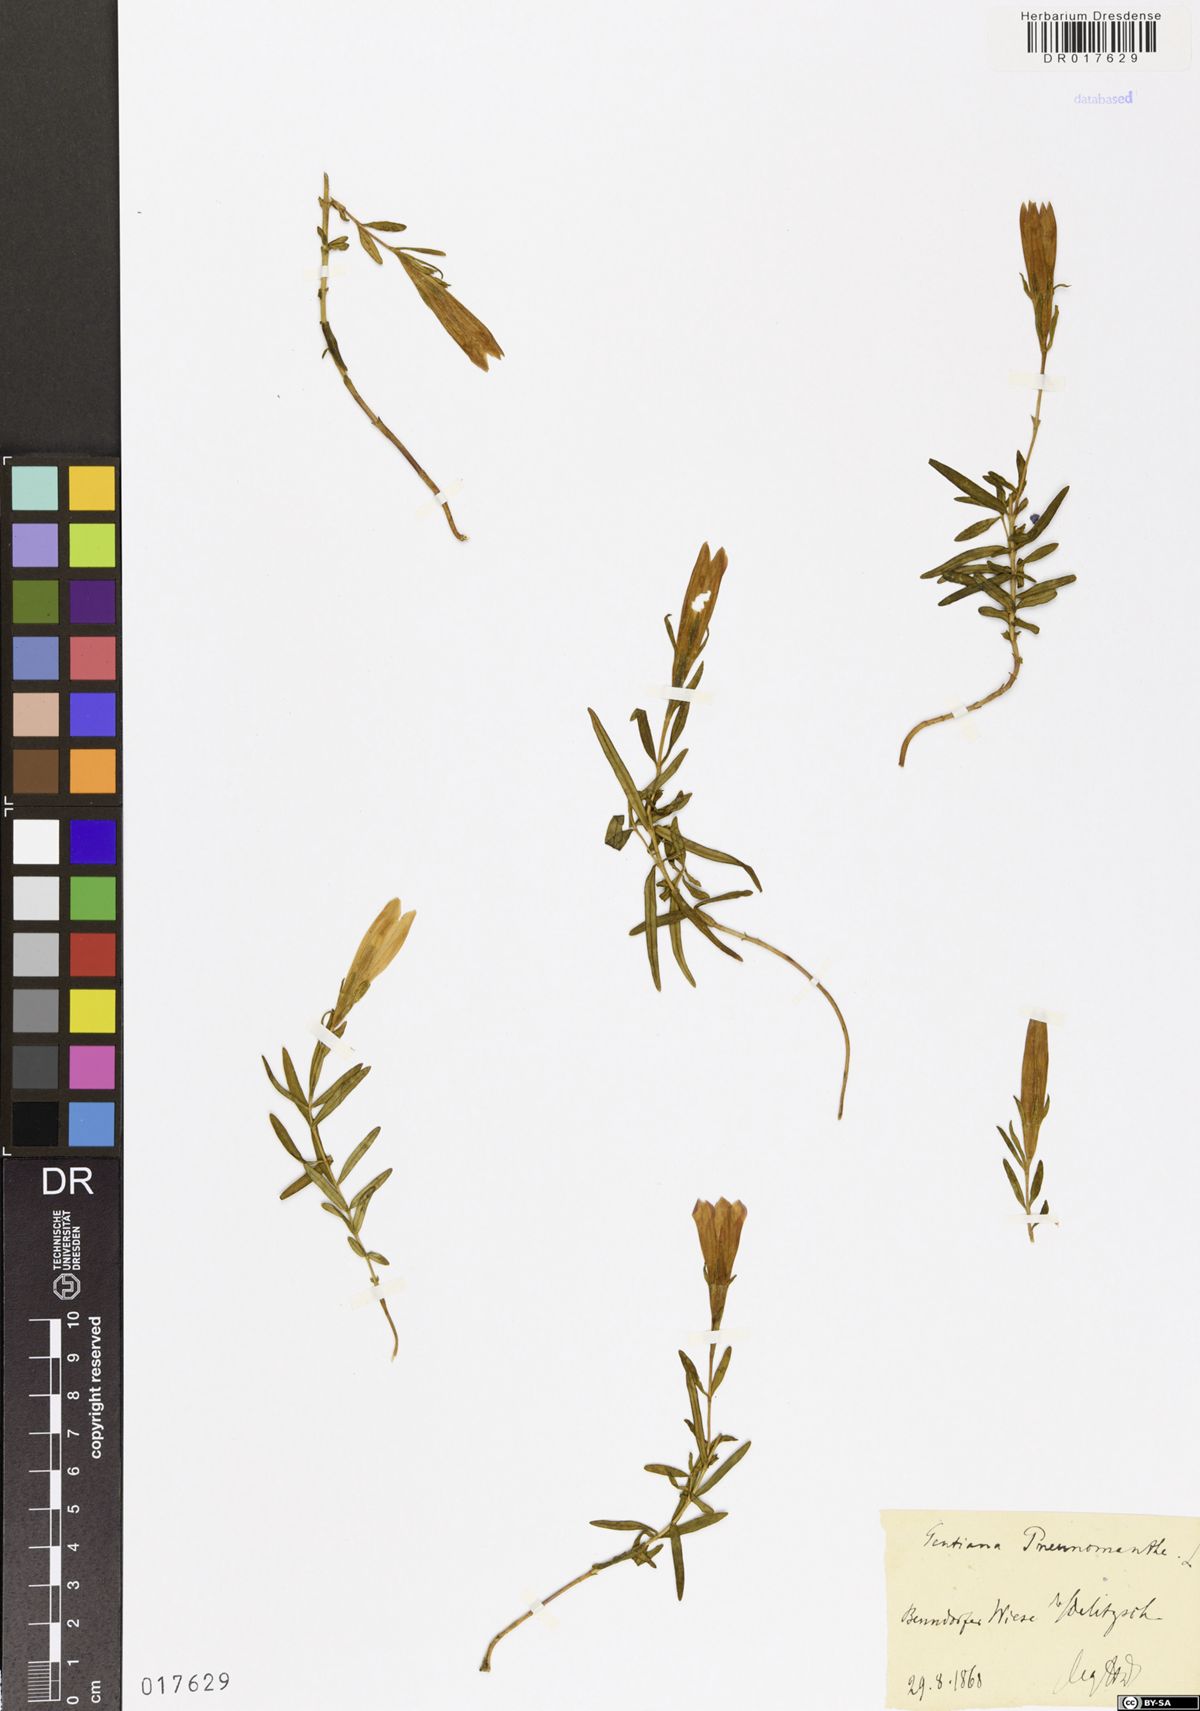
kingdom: Plantae
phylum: Tracheophyta
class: Magnoliopsida
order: Gentianales
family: Gentianaceae
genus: Gentiana
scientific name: Gentiana pneumonanthe
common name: Marsh gentian
